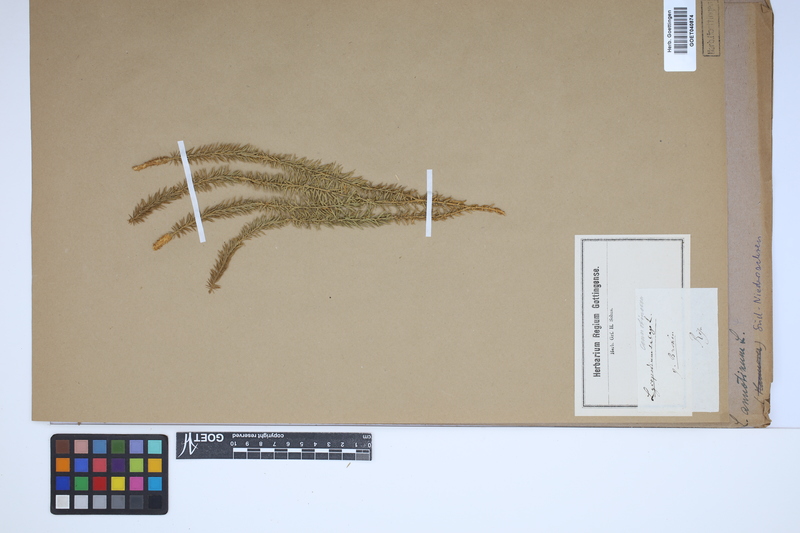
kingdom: Plantae
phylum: Tracheophyta
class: Lycopodiopsida
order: Lycopodiales
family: Lycopodiaceae
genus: Spinulum
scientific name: Spinulum annotinum
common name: Interrupted club-moss
